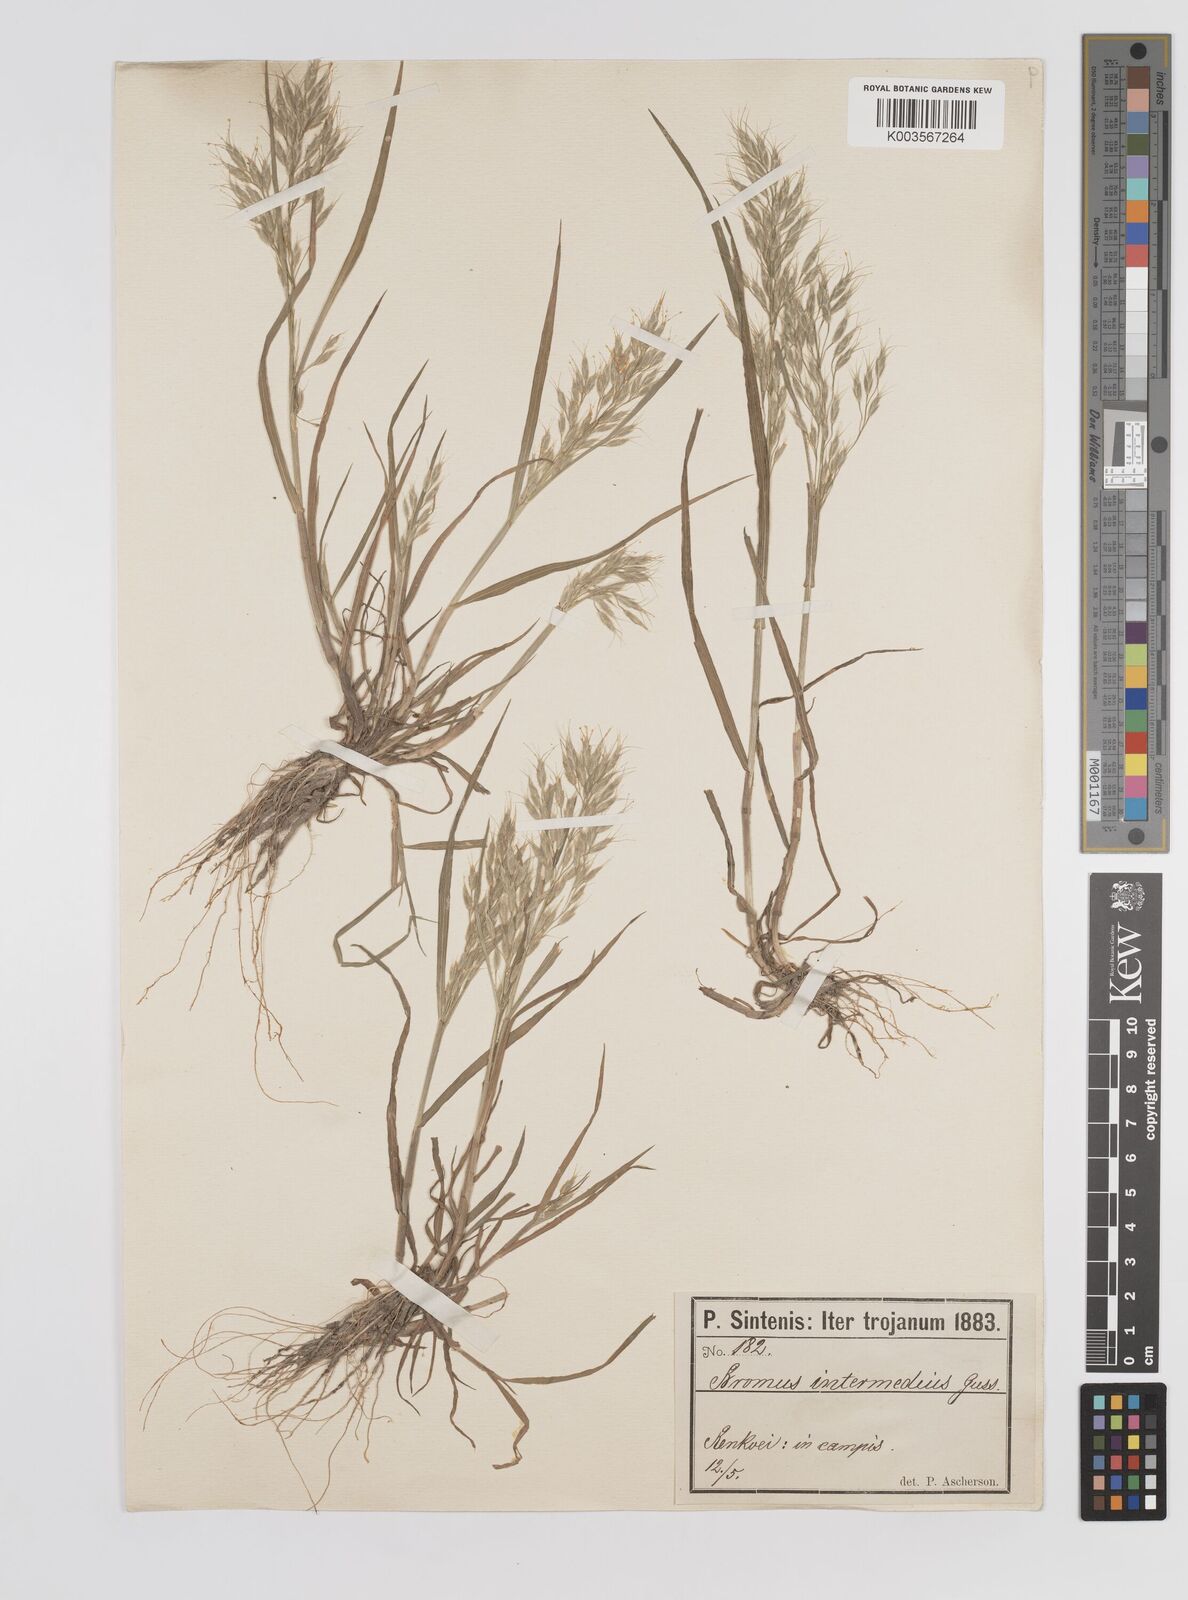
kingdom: Plantae
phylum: Tracheophyta
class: Liliopsida
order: Poales
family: Poaceae
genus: Bromus
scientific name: Bromus intermedius
